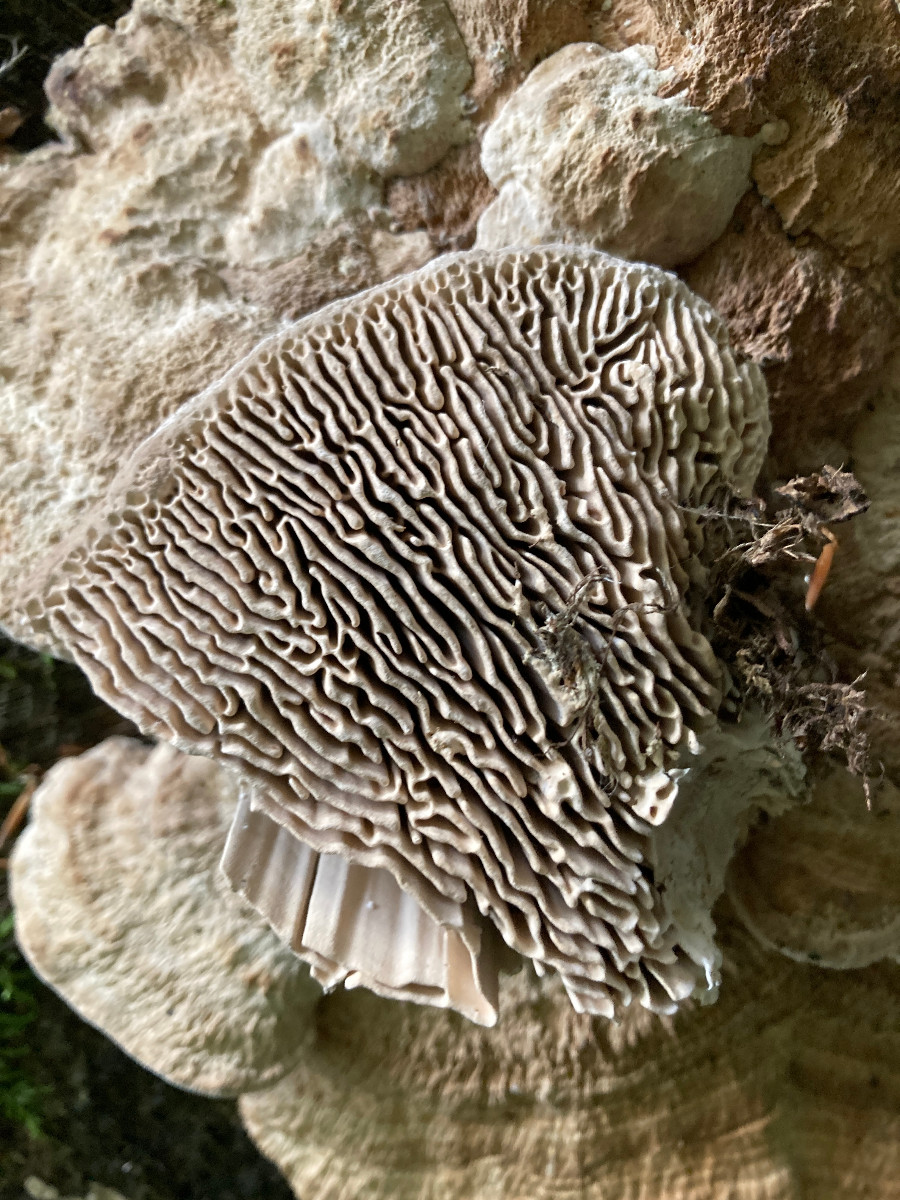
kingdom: Fungi
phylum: Basidiomycota
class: Agaricomycetes
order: Polyporales
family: Fomitopsidaceae
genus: Daedalea
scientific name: Daedalea quercina
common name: ege-labyrintsvamp
